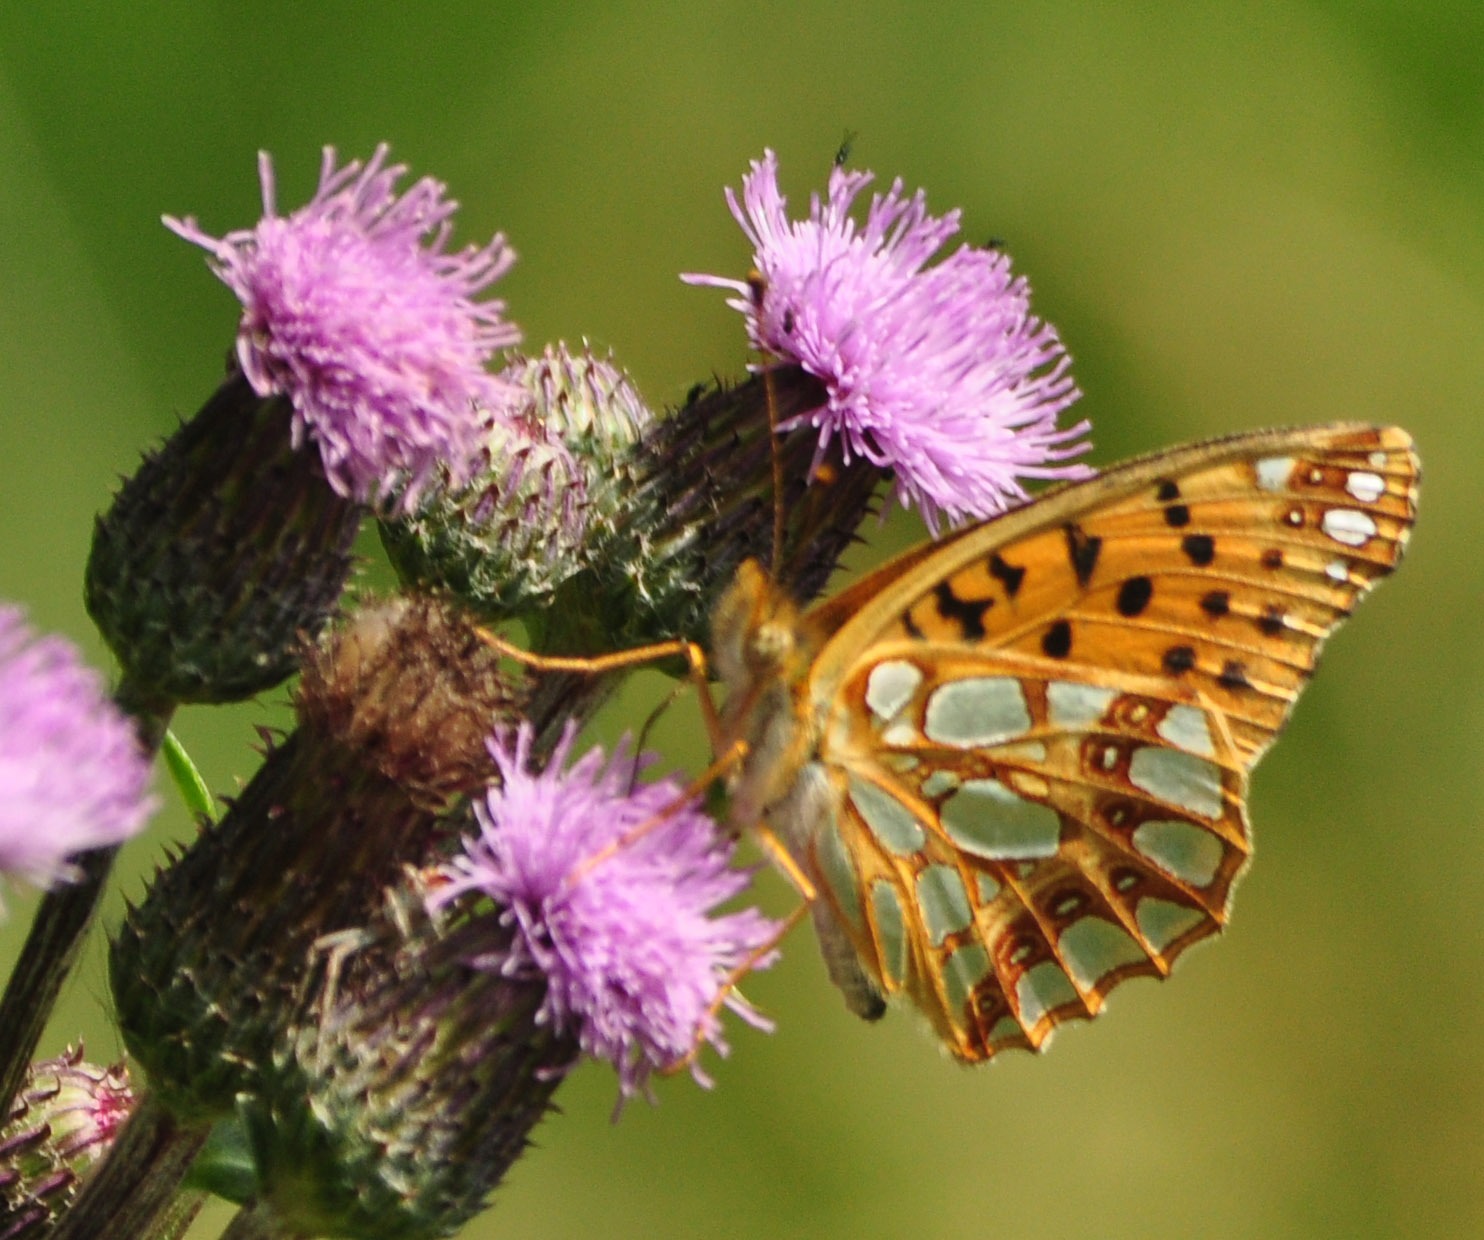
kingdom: Animalia
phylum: Arthropoda
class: Insecta
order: Lepidoptera
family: Nymphalidae
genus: Issoria
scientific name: Issoria lathonia
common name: Storplettet perlemorsommerfugl
